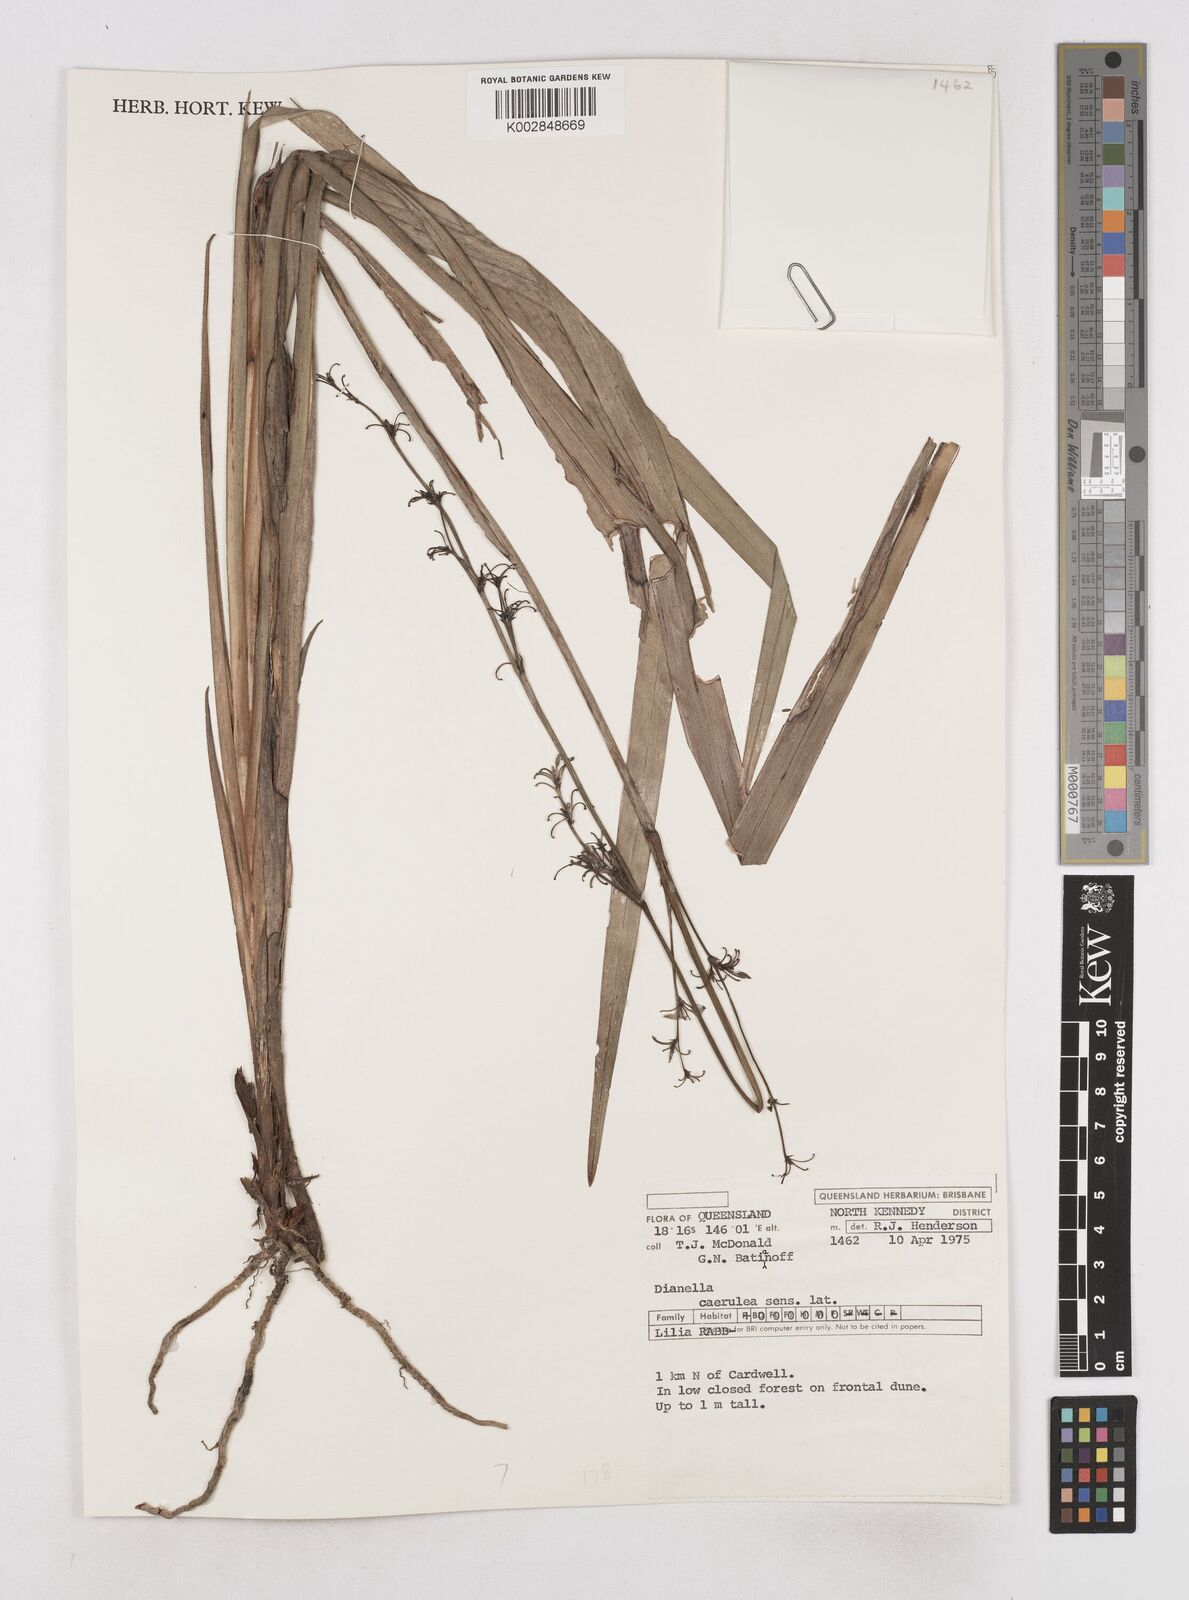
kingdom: Plantae
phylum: Tracheophyta
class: Liliopsida
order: Asparagales
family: Asphodelaceae
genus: Dianella
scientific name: Dianella caerulea
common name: Blue flax-lily
